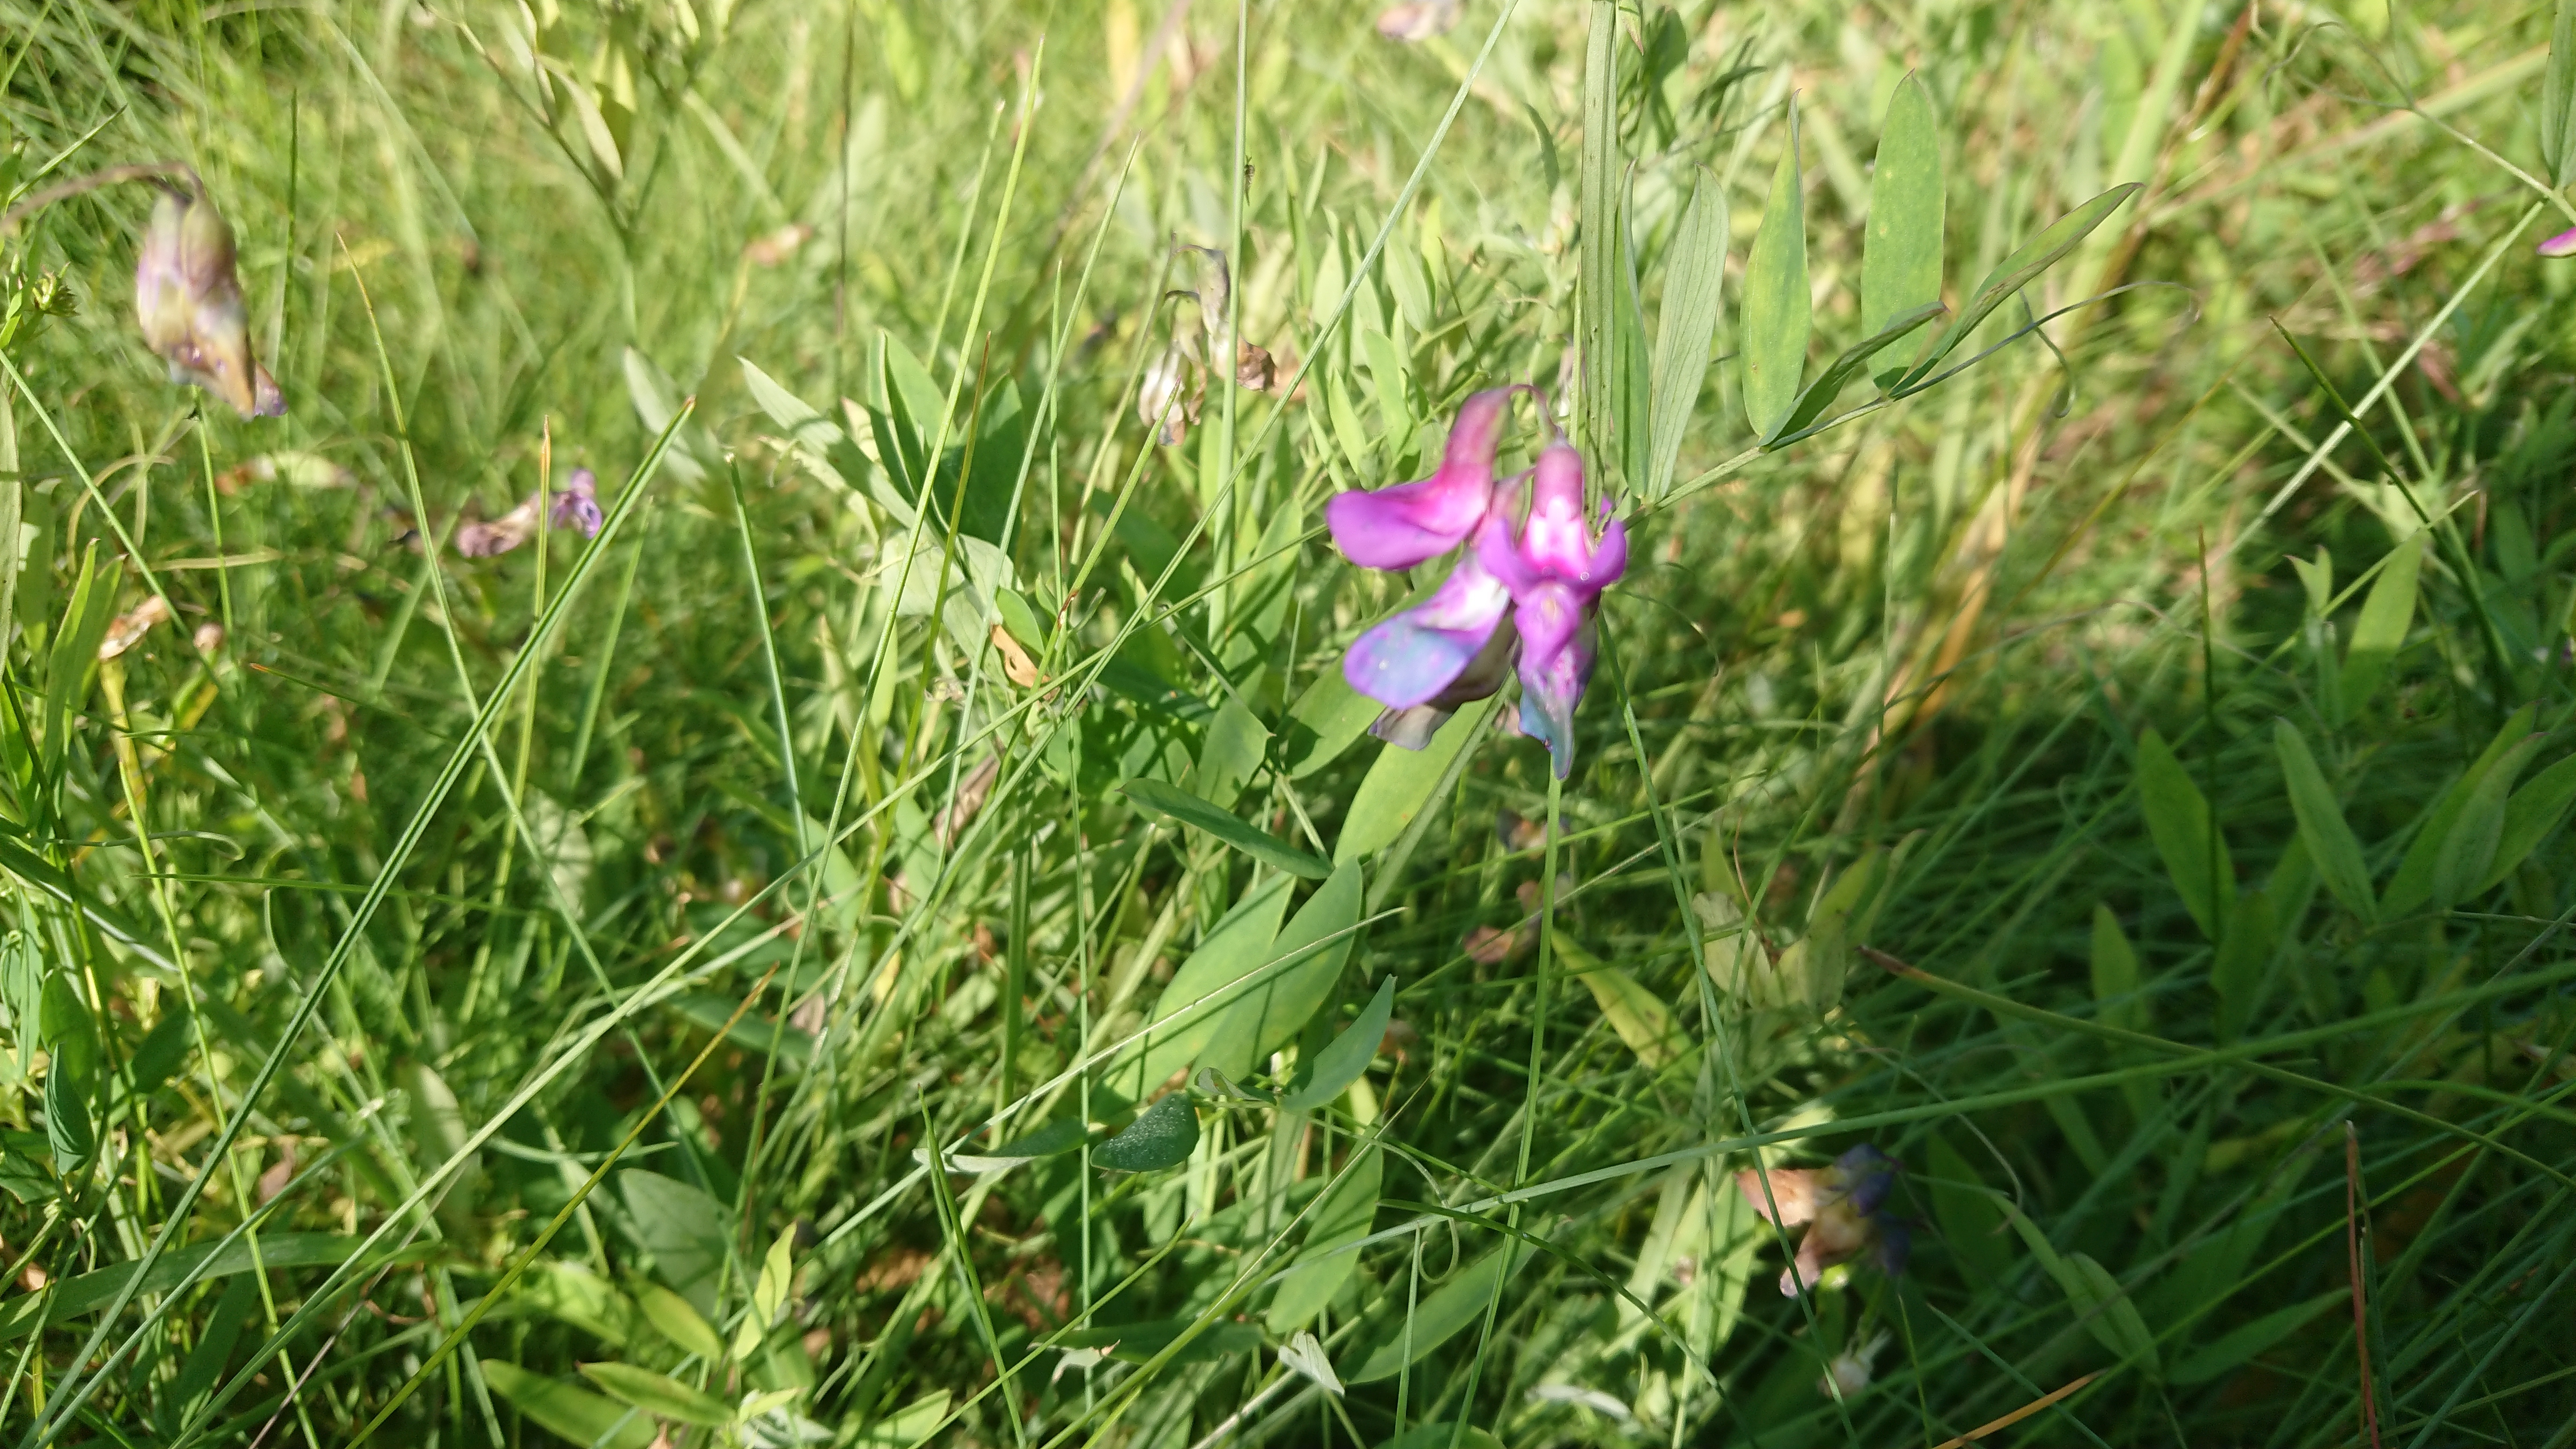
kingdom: Plantae
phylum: Tracheophyta
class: Magnoliopsida
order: Fabales
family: Fabaceae
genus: Lathyrus
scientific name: Lathyrus palustris
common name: Marsh pea
